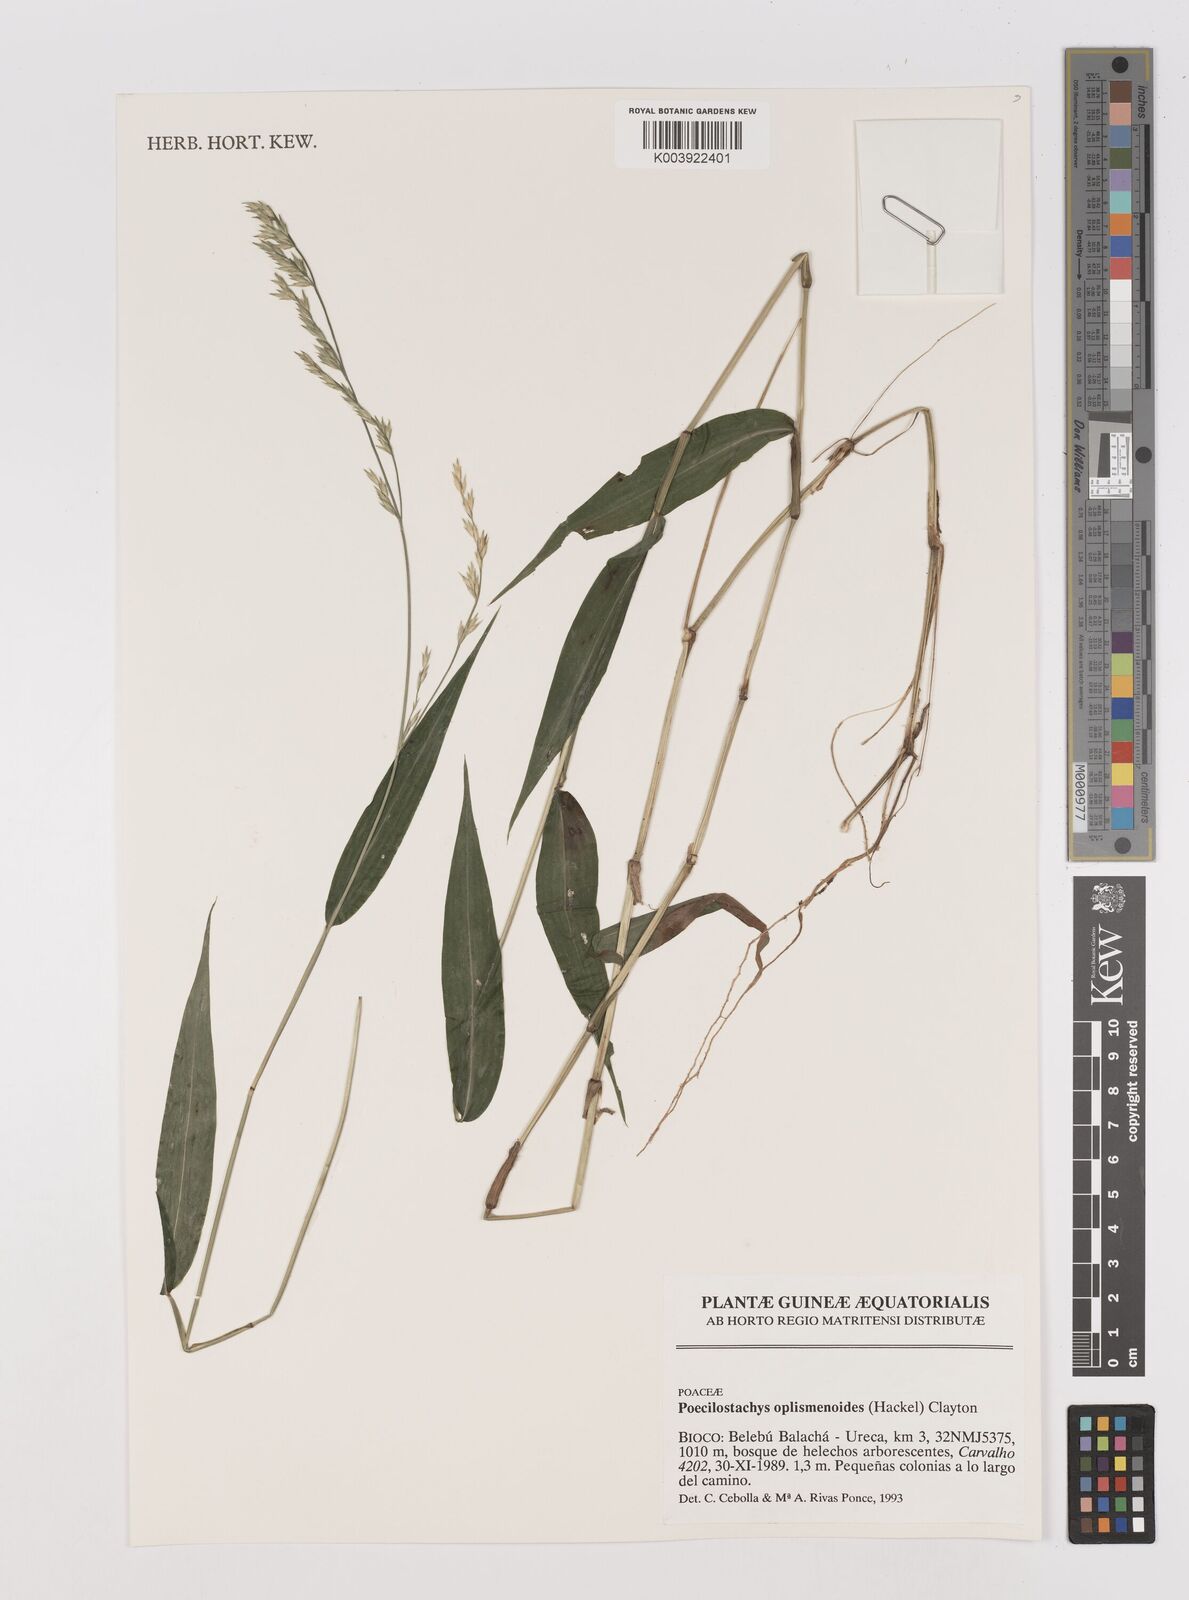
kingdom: Plantae
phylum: Tracheophyta
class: Liliopsida
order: Poales
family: Poaceae
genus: Poecilostachys
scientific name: Poecilostachys oplismenoides
